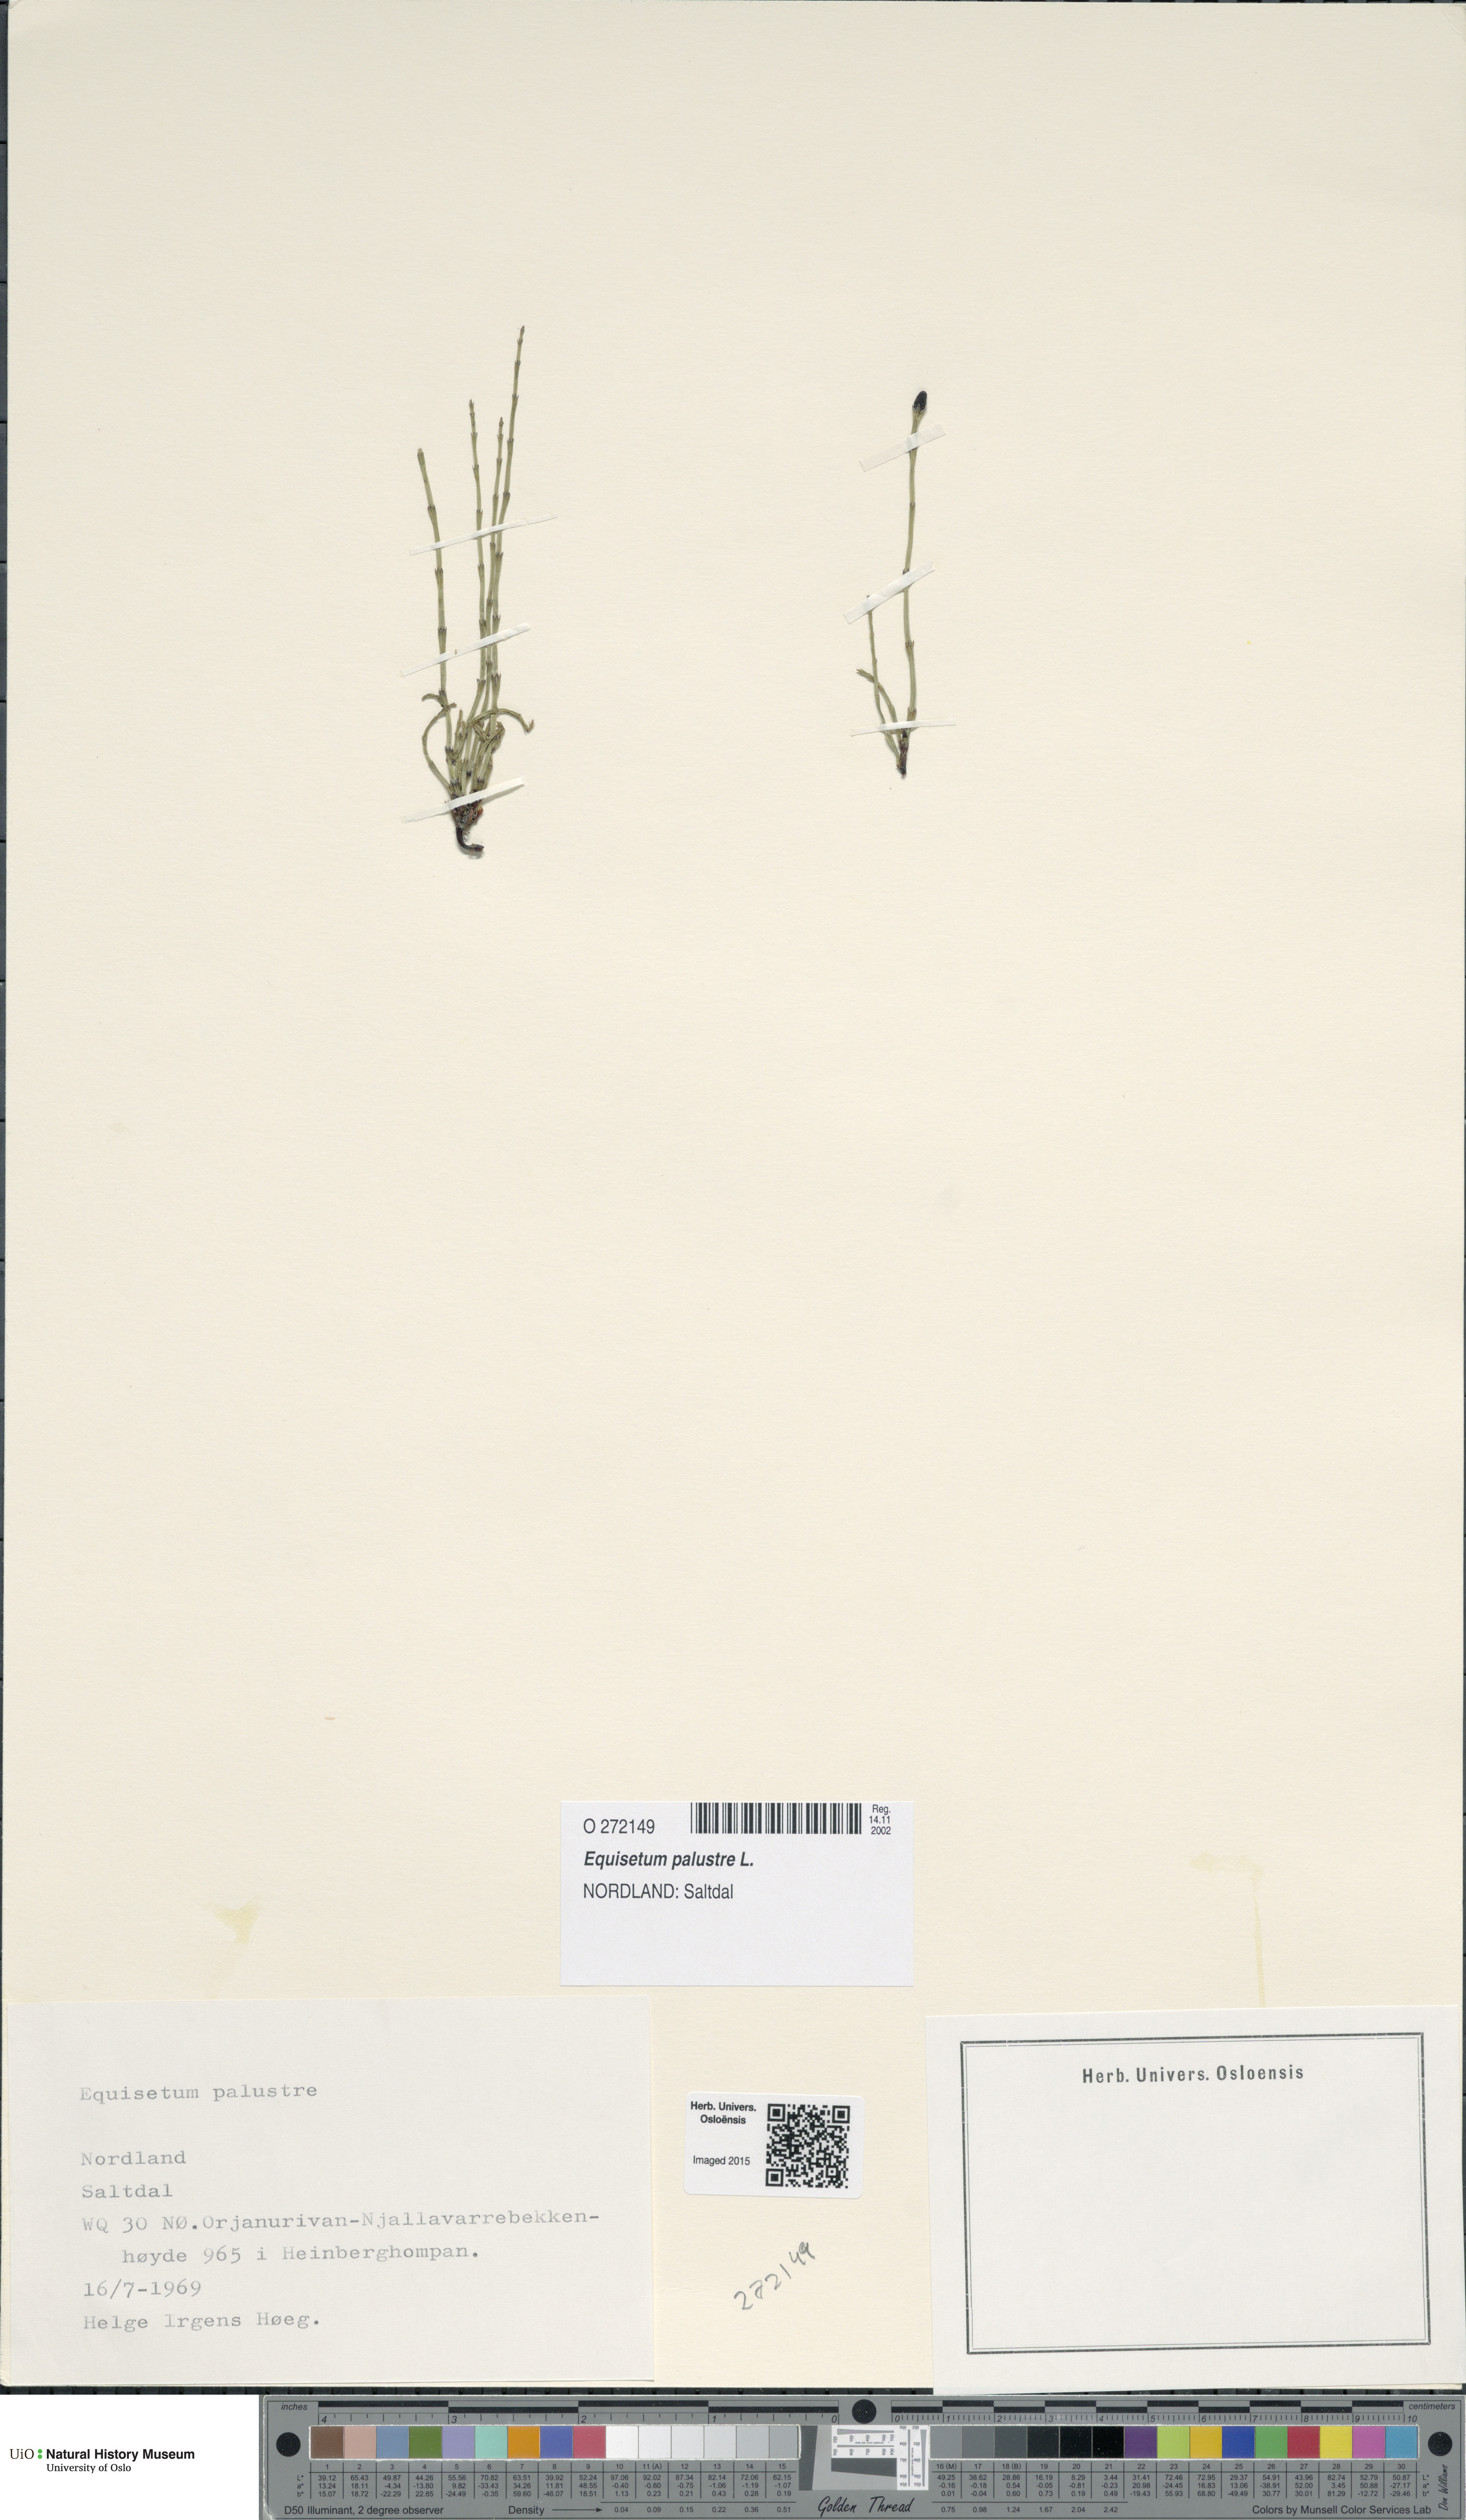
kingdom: Plantae
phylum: Tracheophyta
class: Polypodiopsida
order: Equisetales
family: Equisetaceae
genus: Equisetum
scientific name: Equisetum palustre
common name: Marsh horsetail
